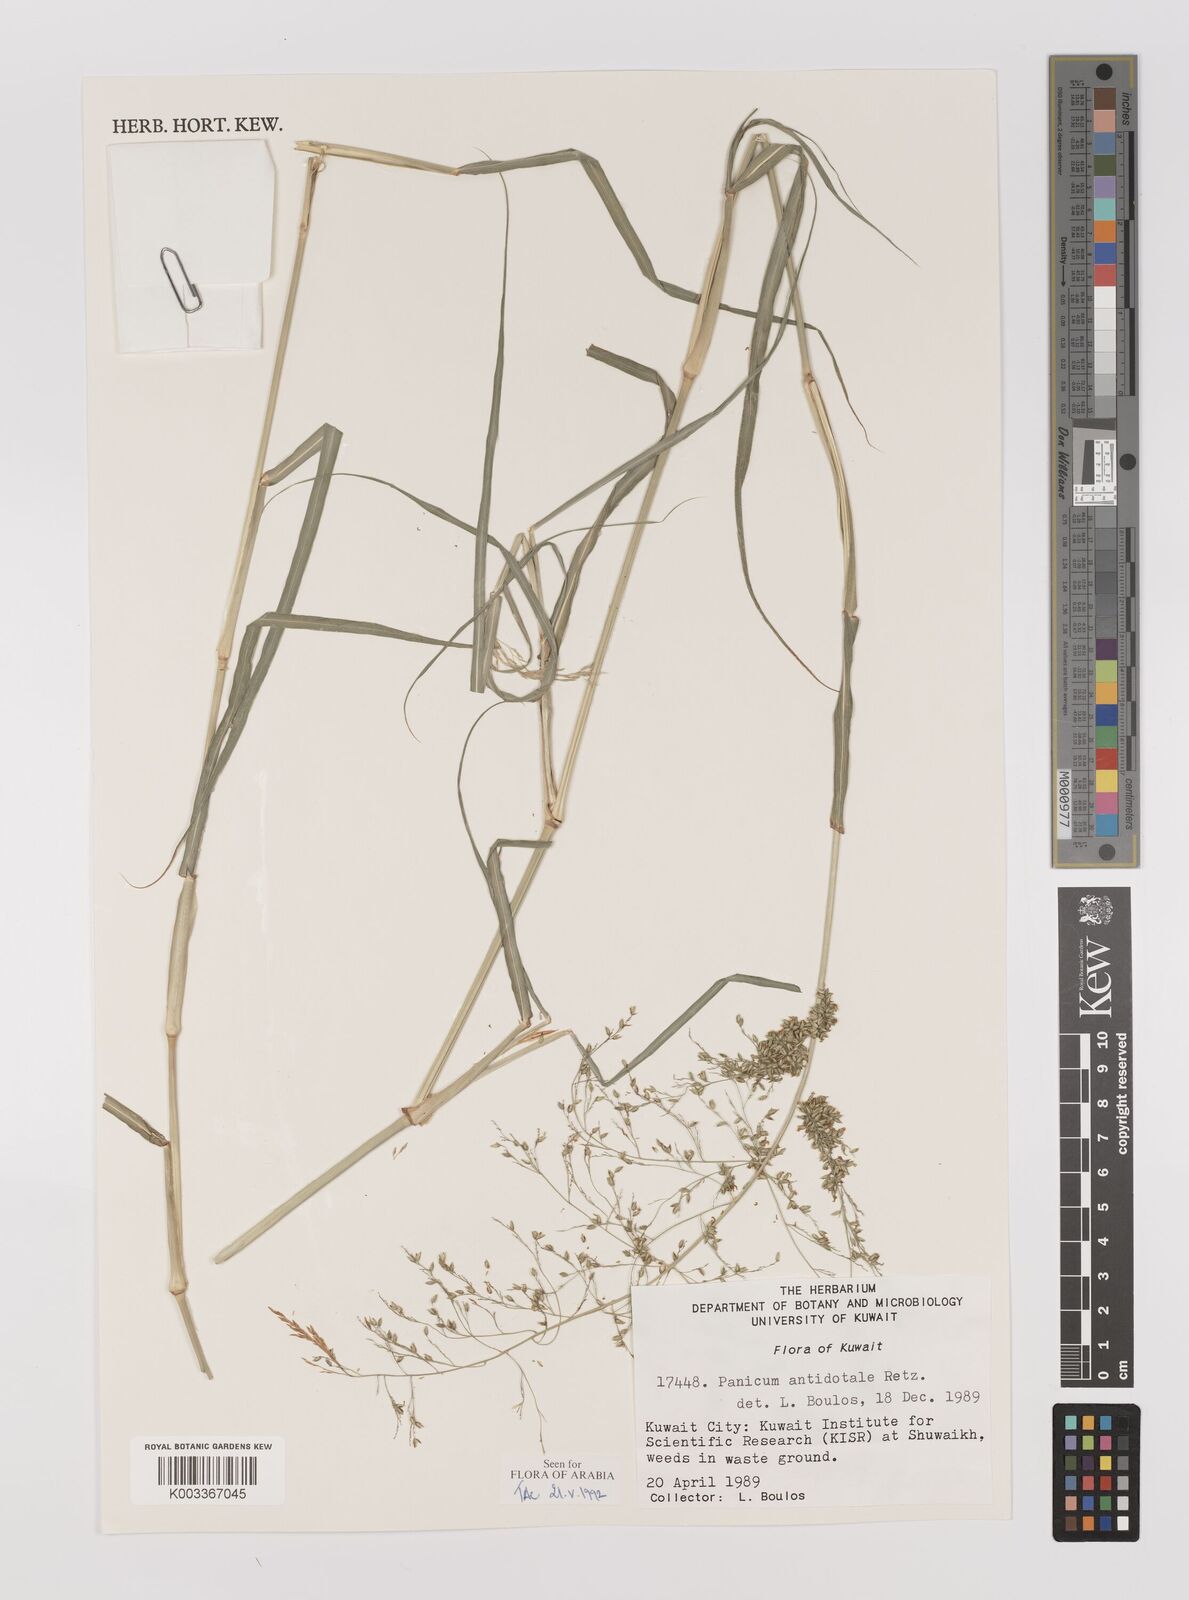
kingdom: Plantae
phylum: Tracheophyta
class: Liliopsida
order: Poales
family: Poaceae
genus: Panicum
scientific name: Panicum antidotale
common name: Blue panicum
